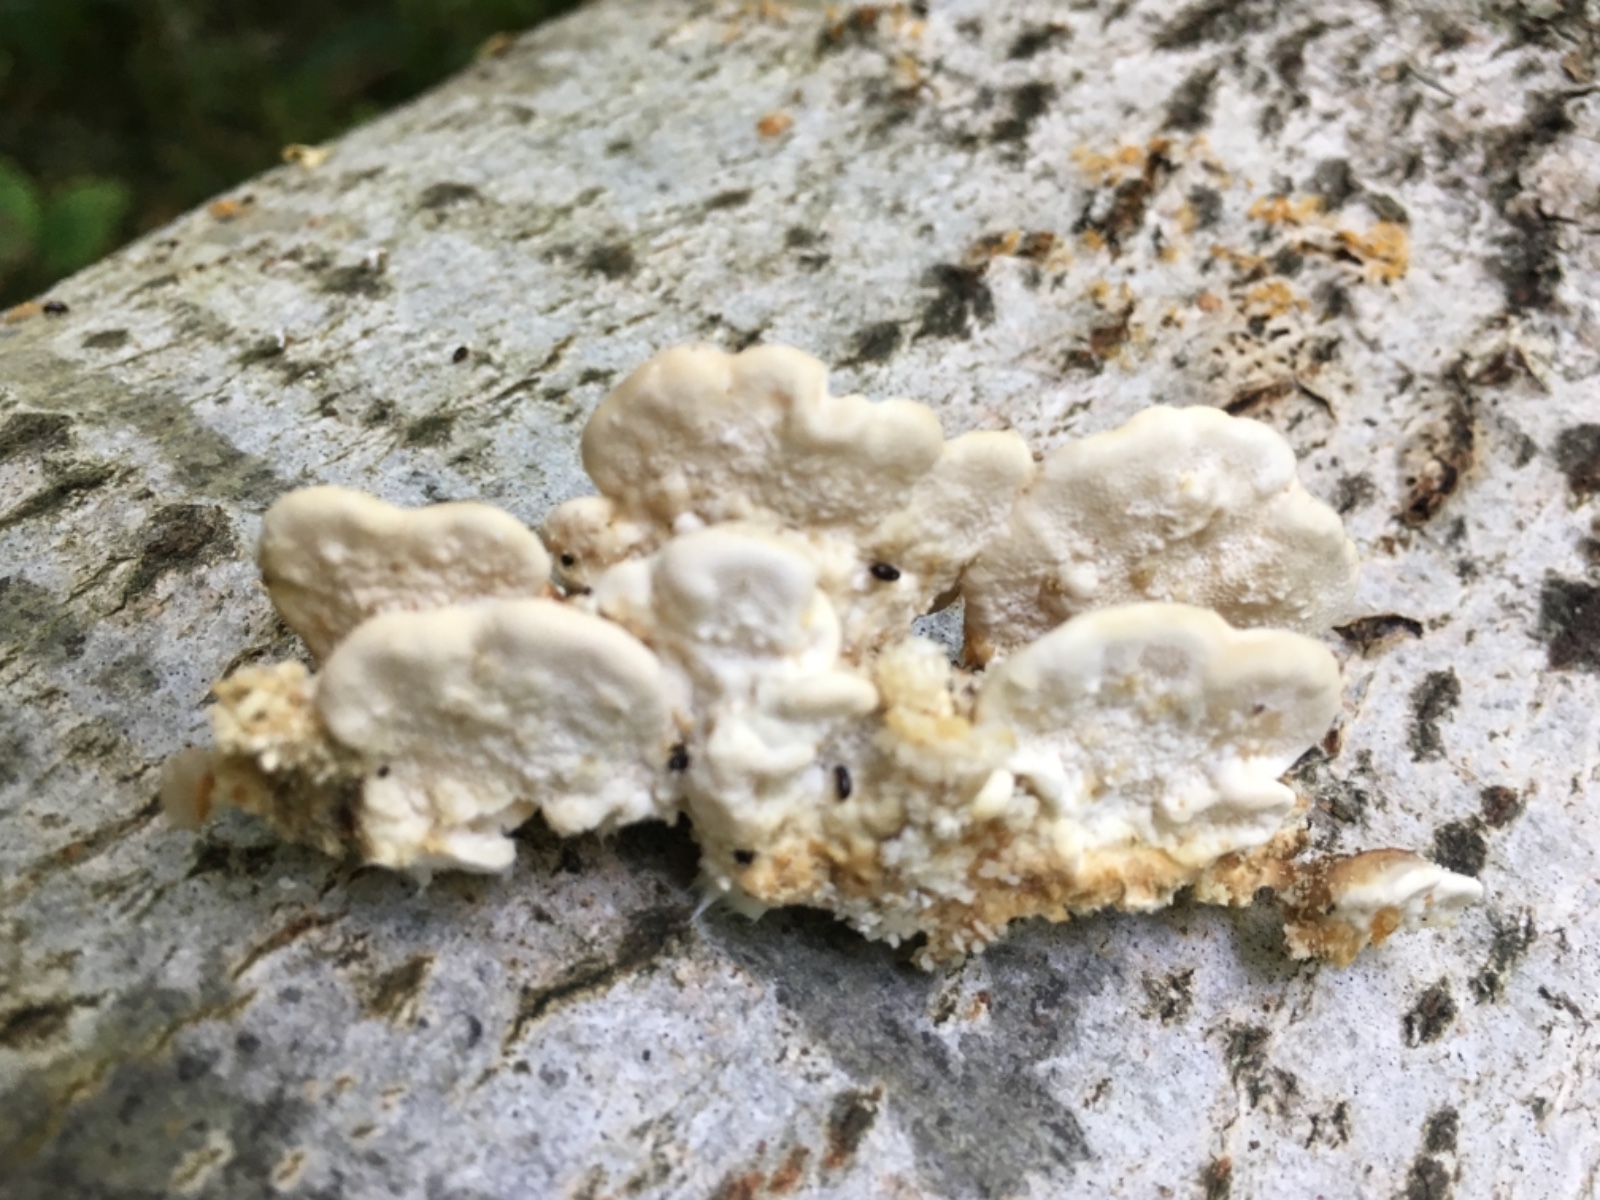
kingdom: Fungi
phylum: Basidiomycota
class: Agaricomycetes
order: Polyporales
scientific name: Polyporales
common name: poresvampordenen
